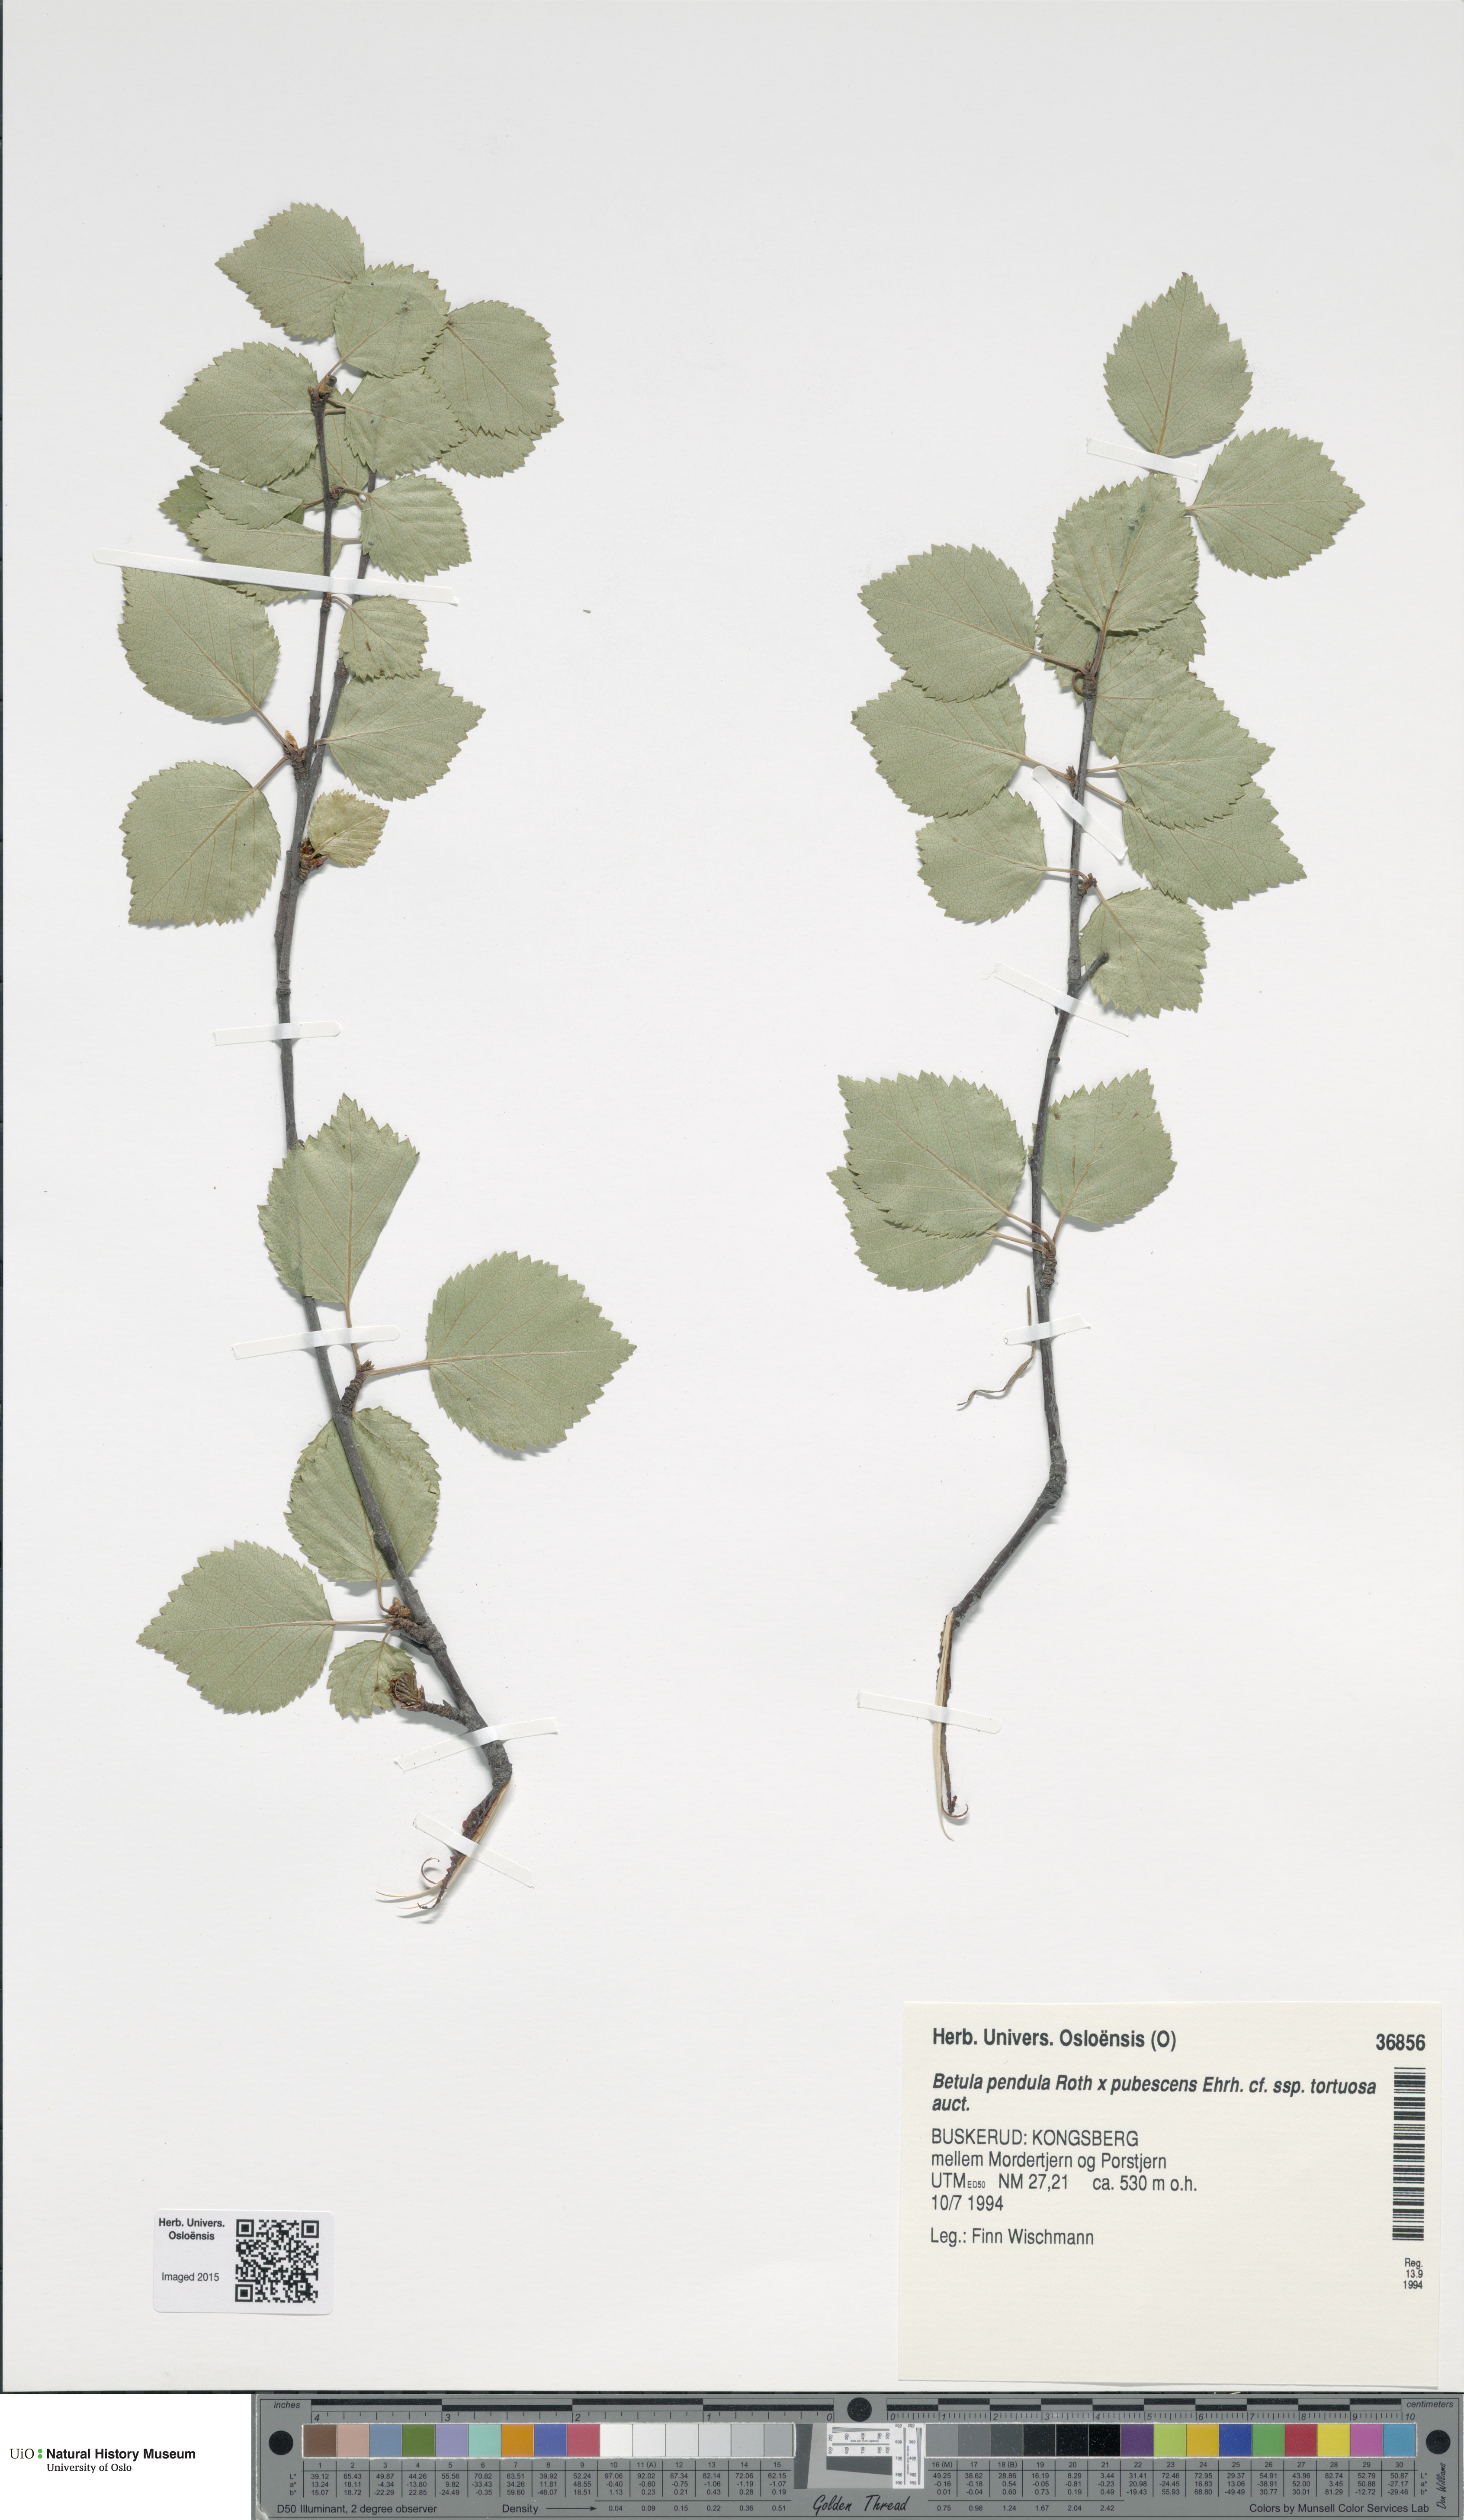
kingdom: Plantae
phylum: Tracheophyta
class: Magnoliopsida
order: Fagales
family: Betulaceae
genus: Betula
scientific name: Betula
